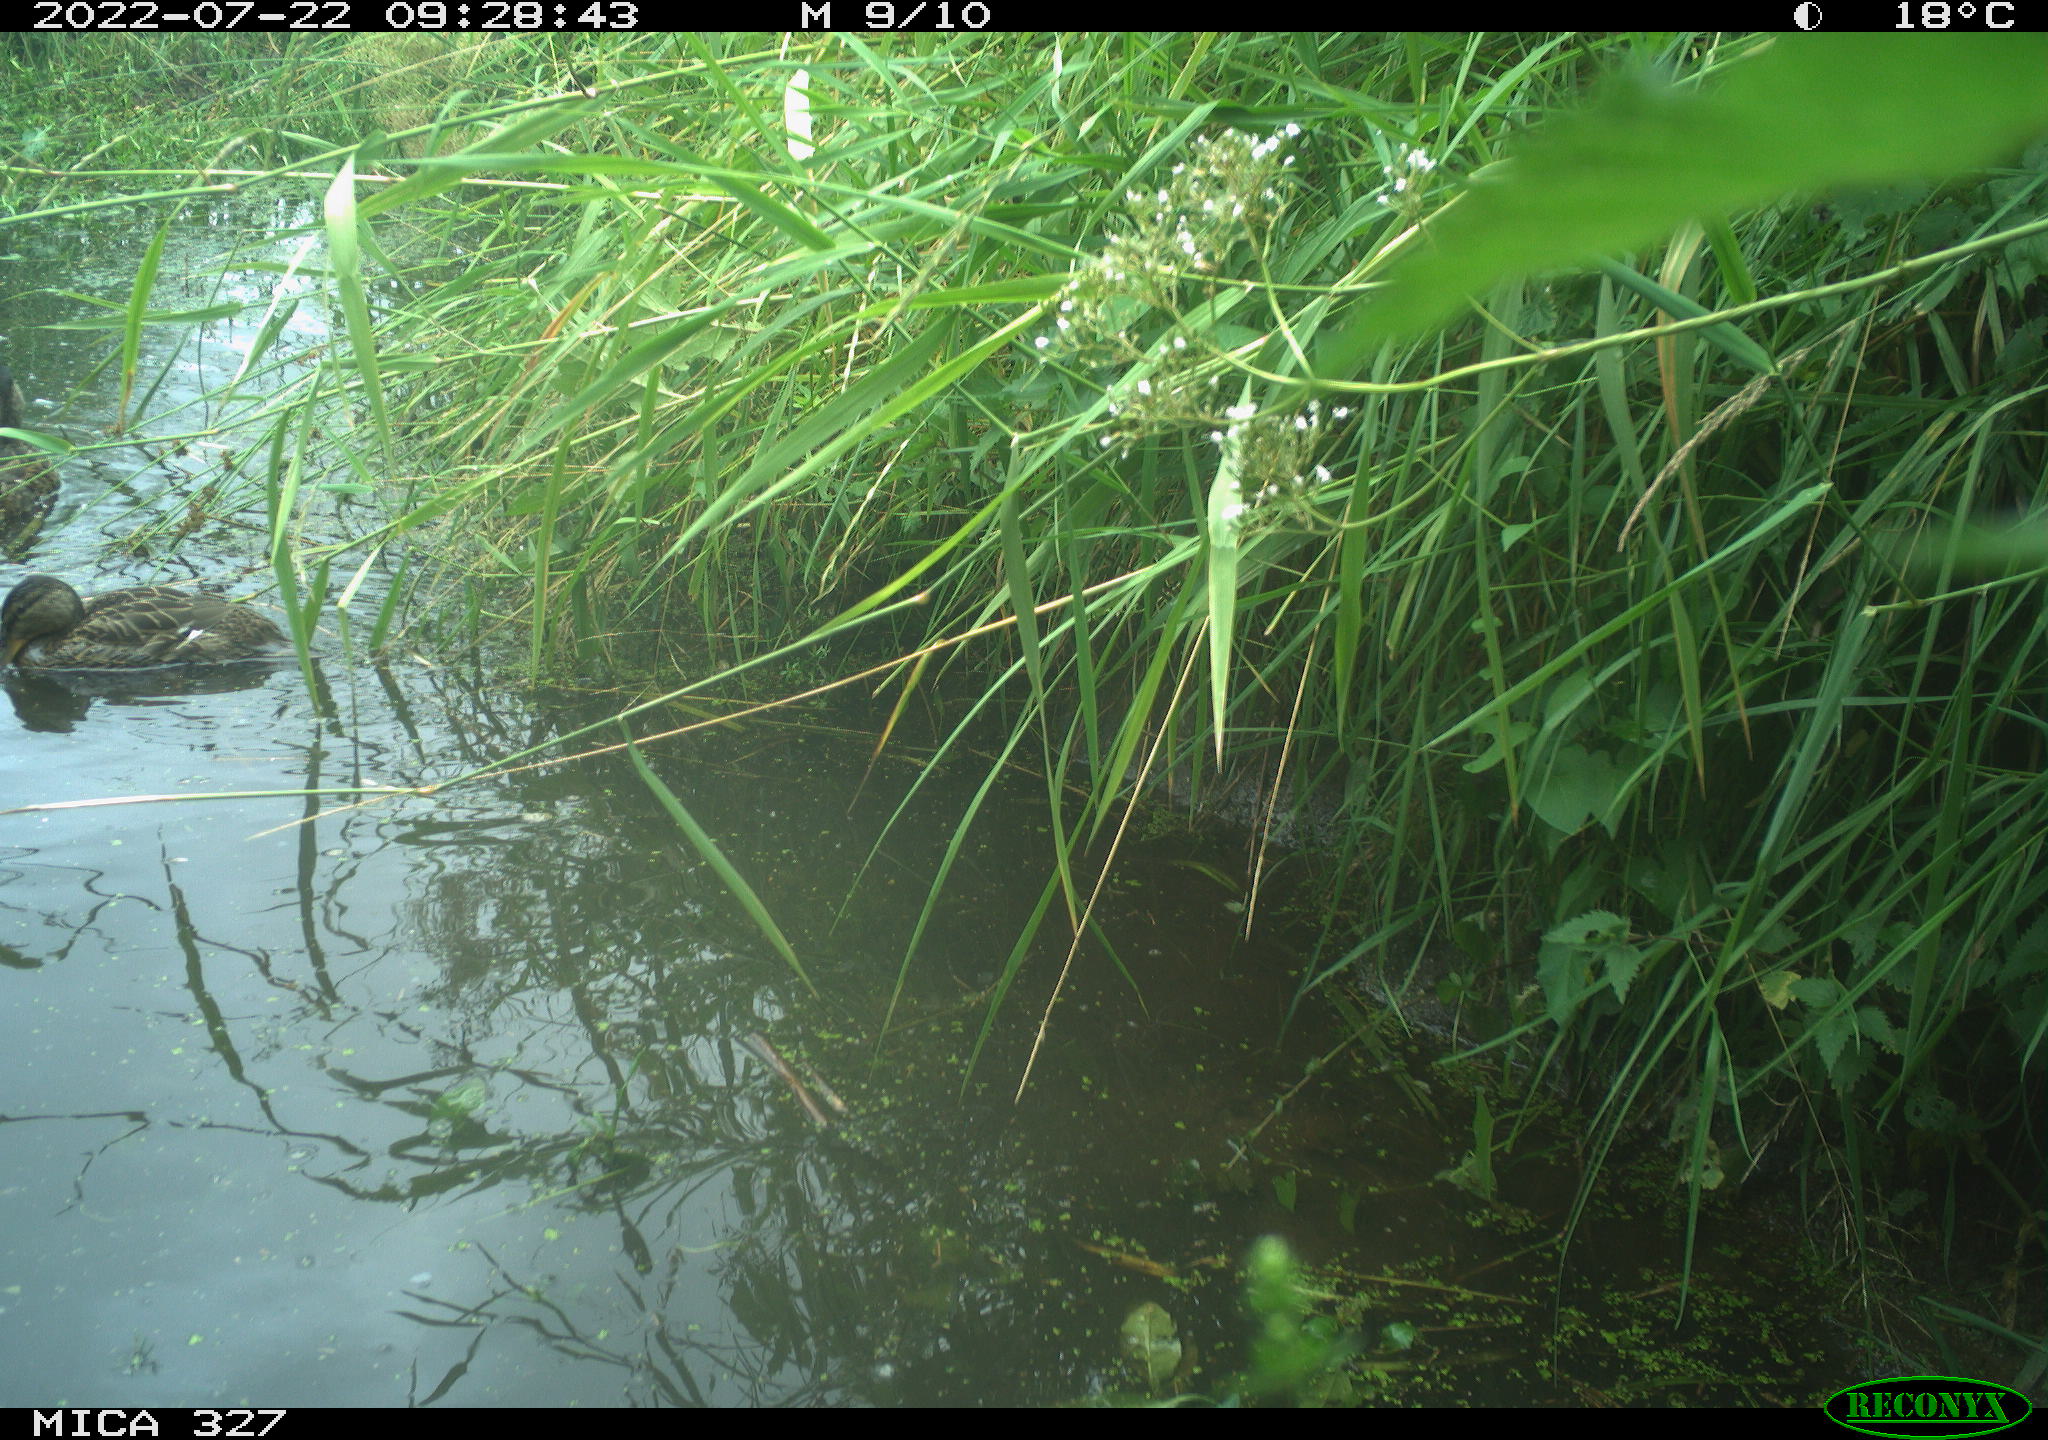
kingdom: Animalia
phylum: Chordata
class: Aves
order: Anseriformes
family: Anatidae
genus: Anas
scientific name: Anas
